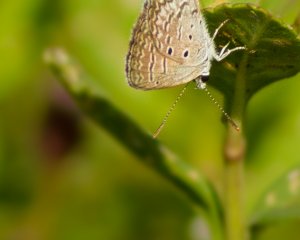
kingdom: Animalia
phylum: Arthropoda
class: Insecta
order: Lepidoptera
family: Lycaenidae
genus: Hemiargus
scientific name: Hemiargus ceraunus
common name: Ceraunus Blue
